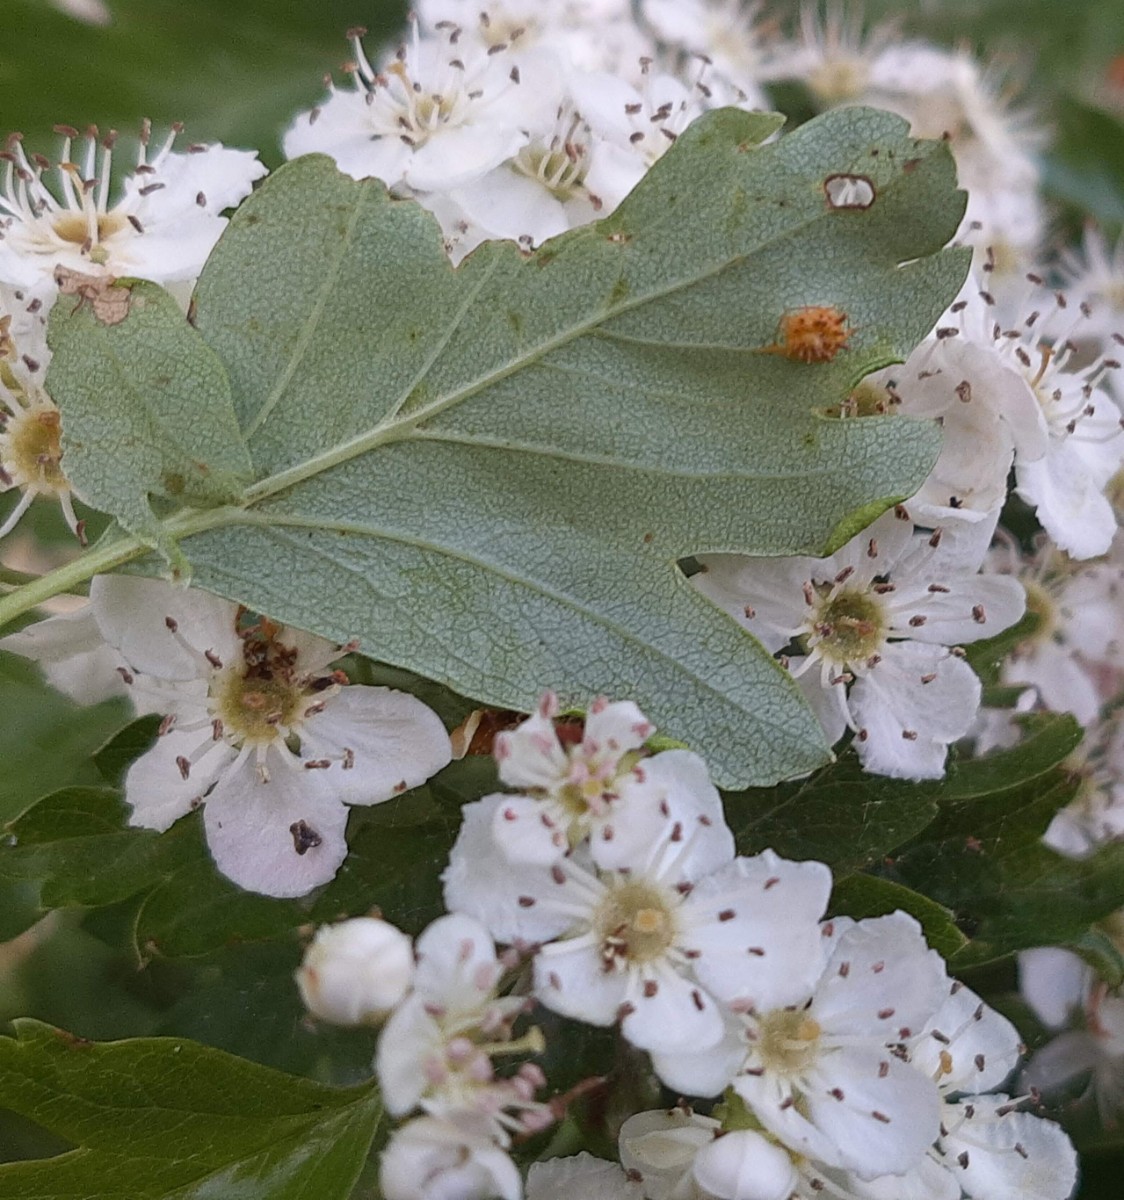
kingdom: Fungi
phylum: Basidiomycota
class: Pucciniomycetes
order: Pucciniales
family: Gymnosporangiaceae
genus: Gymnosporangium
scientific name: Gymnosporangium confusum
